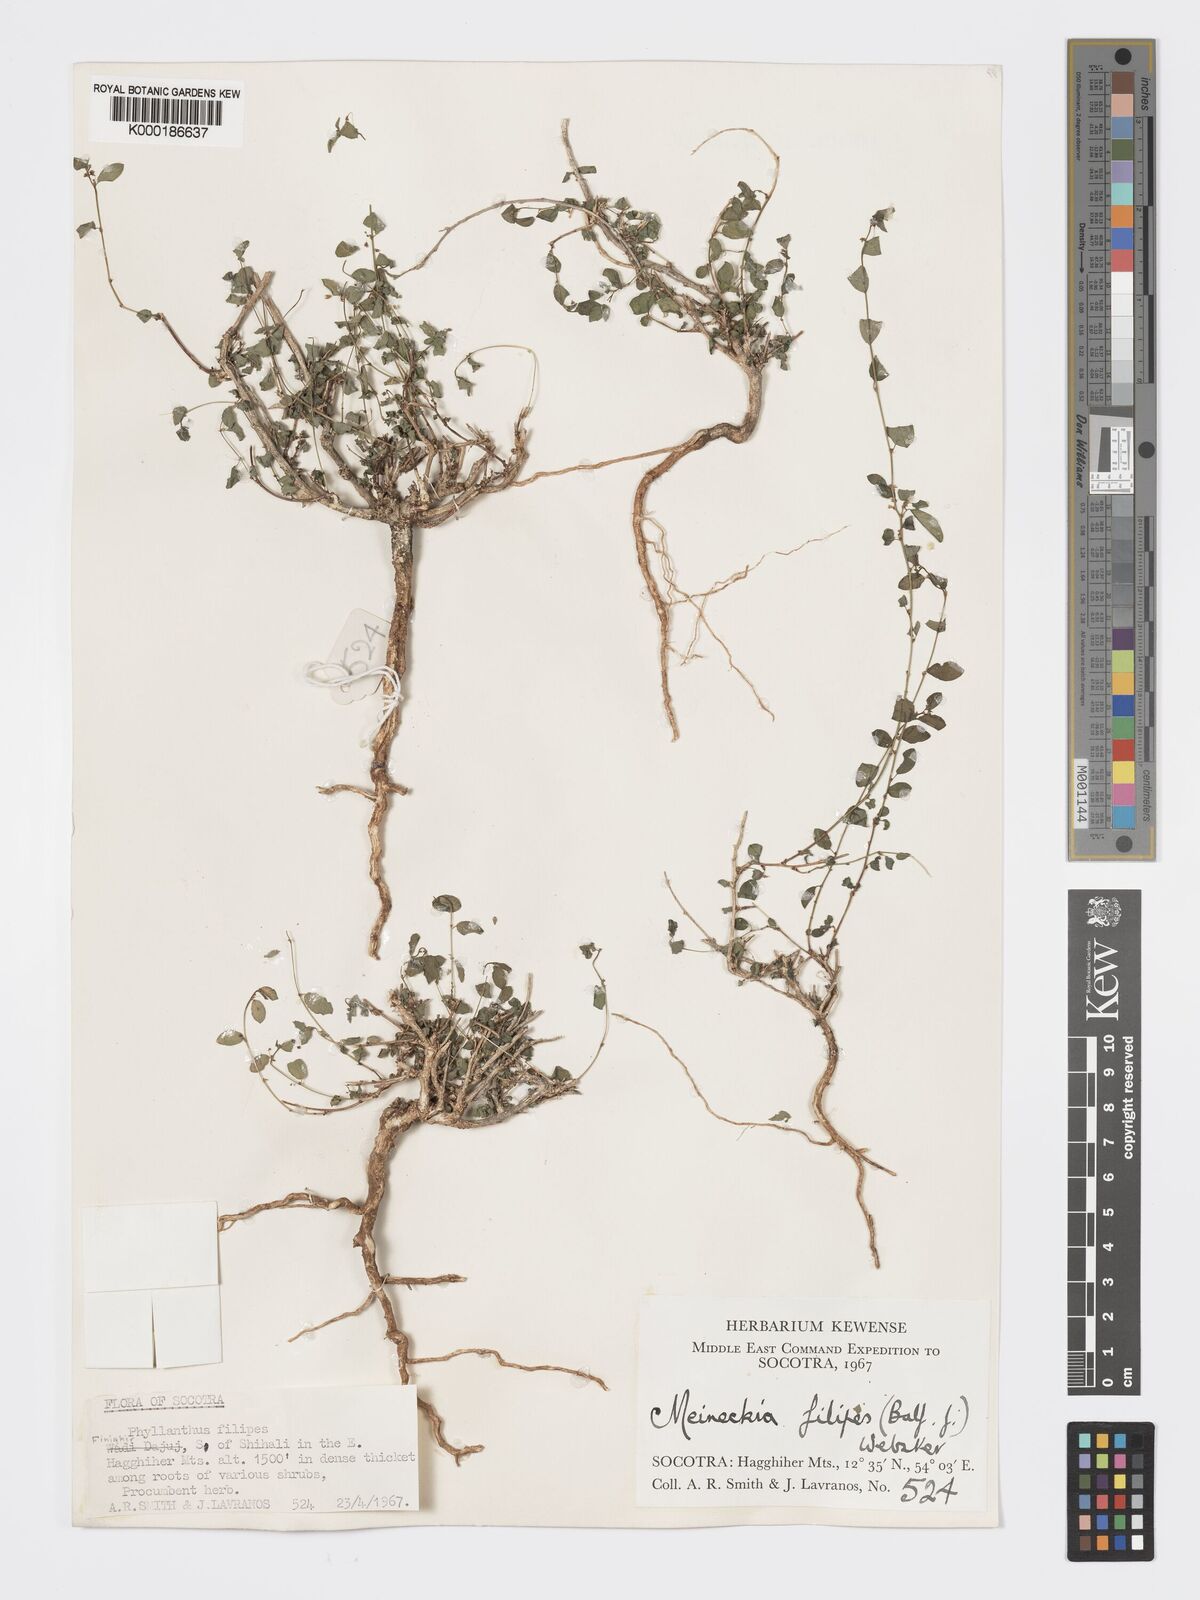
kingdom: Plantae
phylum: Tracheophyta
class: Magnoliopsida
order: Malpighiales
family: Phyllanthaceae
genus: Meineckia
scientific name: Meineckia filipes
